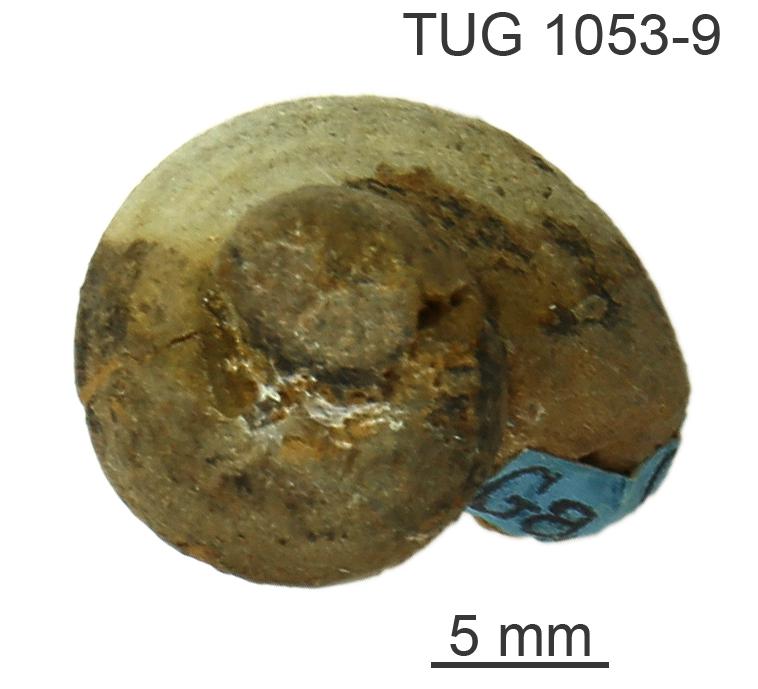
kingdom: Animalia
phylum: Mollusca
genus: Gonionema
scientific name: Gonionema
